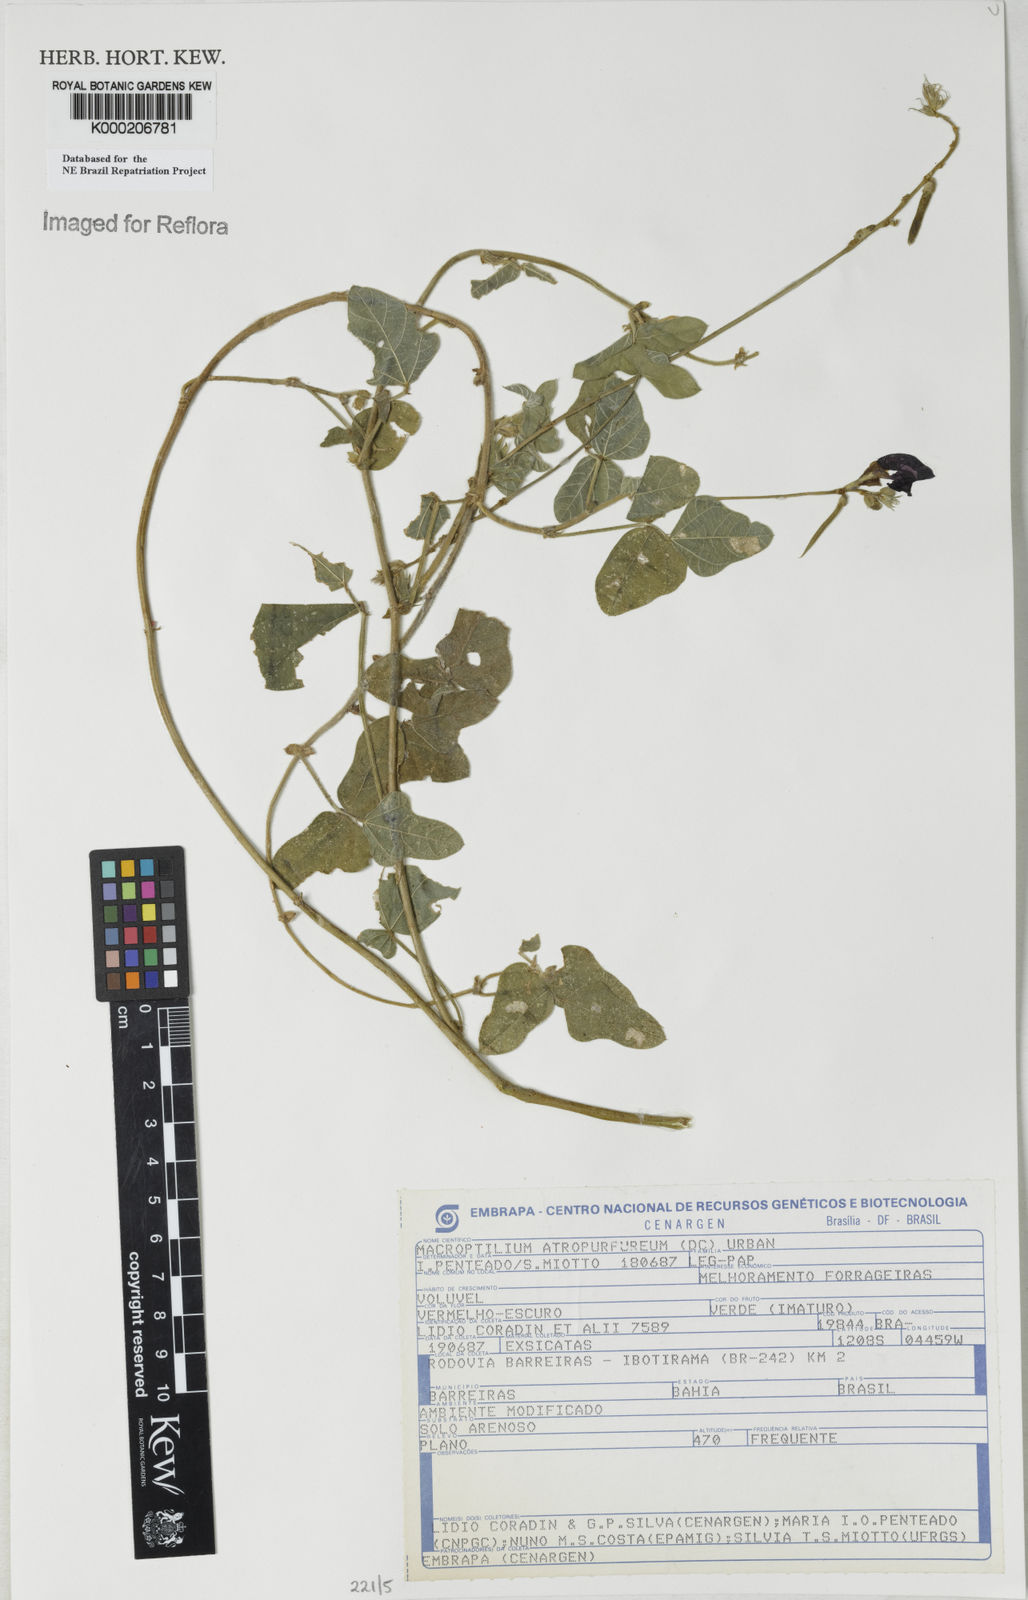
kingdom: Plantae
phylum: Tracheophyta
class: Magnoliopsida
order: Fabales
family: Fabaceae
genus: Macroptilium
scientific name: Macroptilium atropurpureum
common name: Purple bushbean
